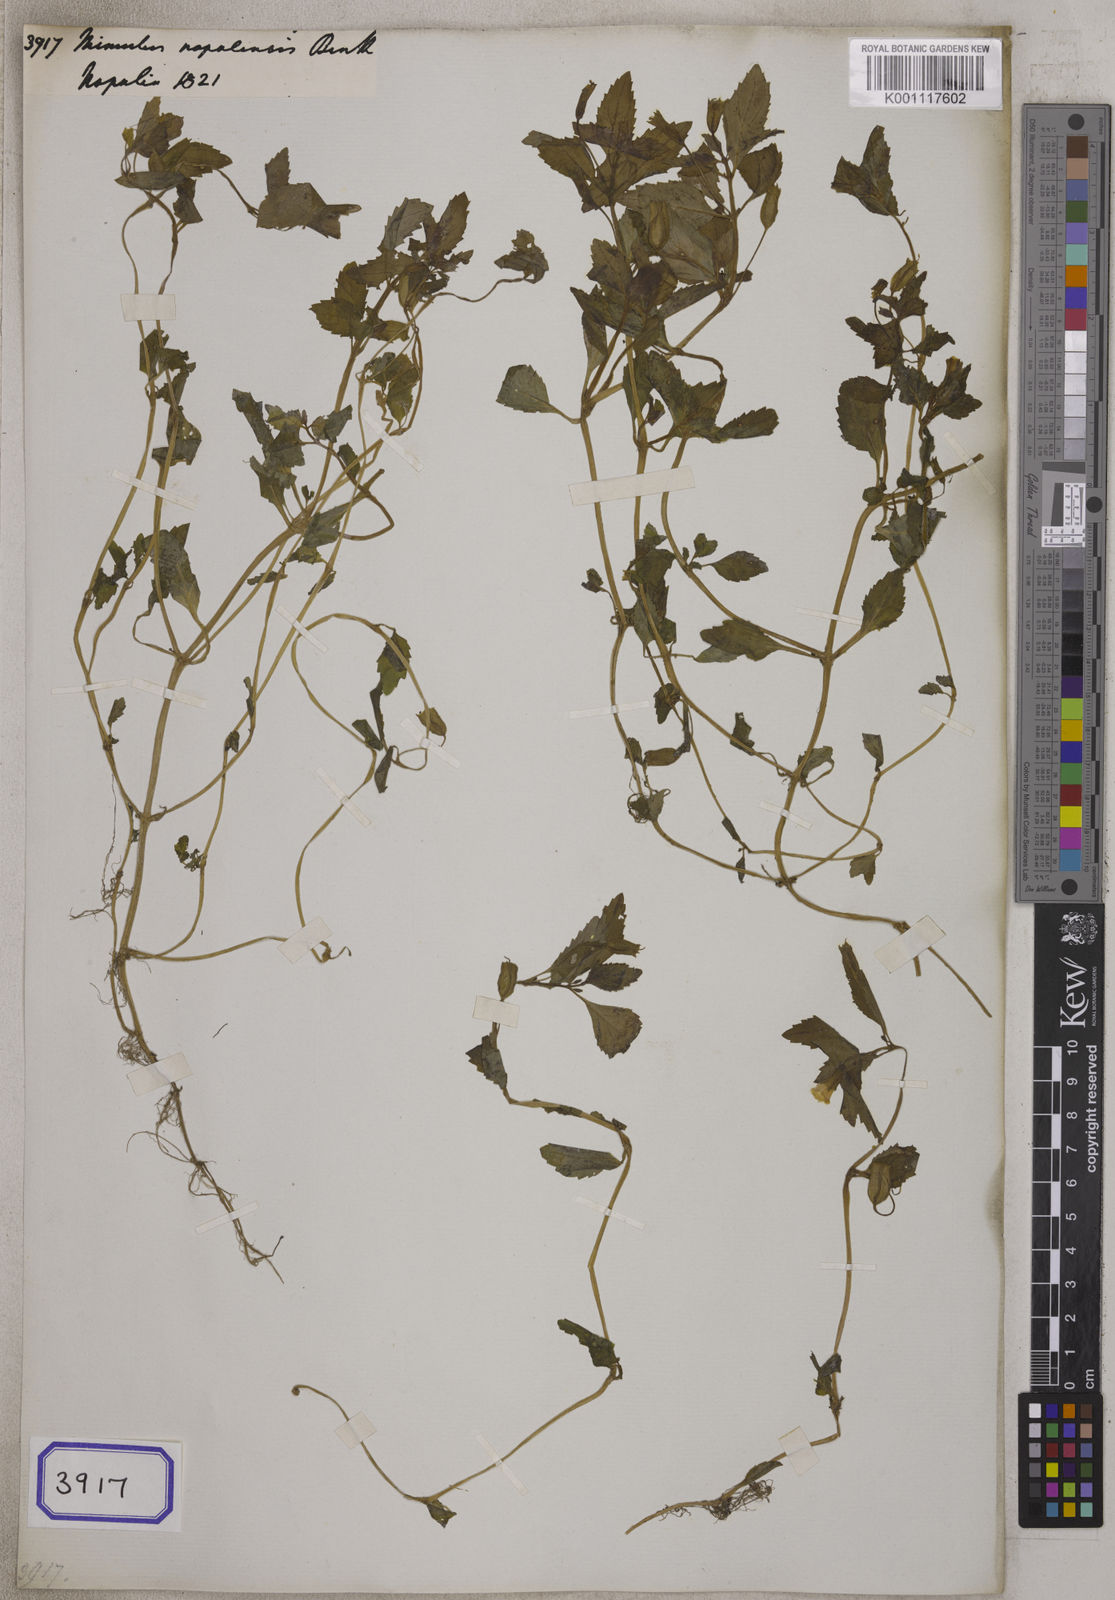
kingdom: Plantae
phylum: Tracheophyta
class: Magnoliopsida
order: Lamiales
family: Phrymaceae
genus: Erythranthe
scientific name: Erythranthe nepalensis
